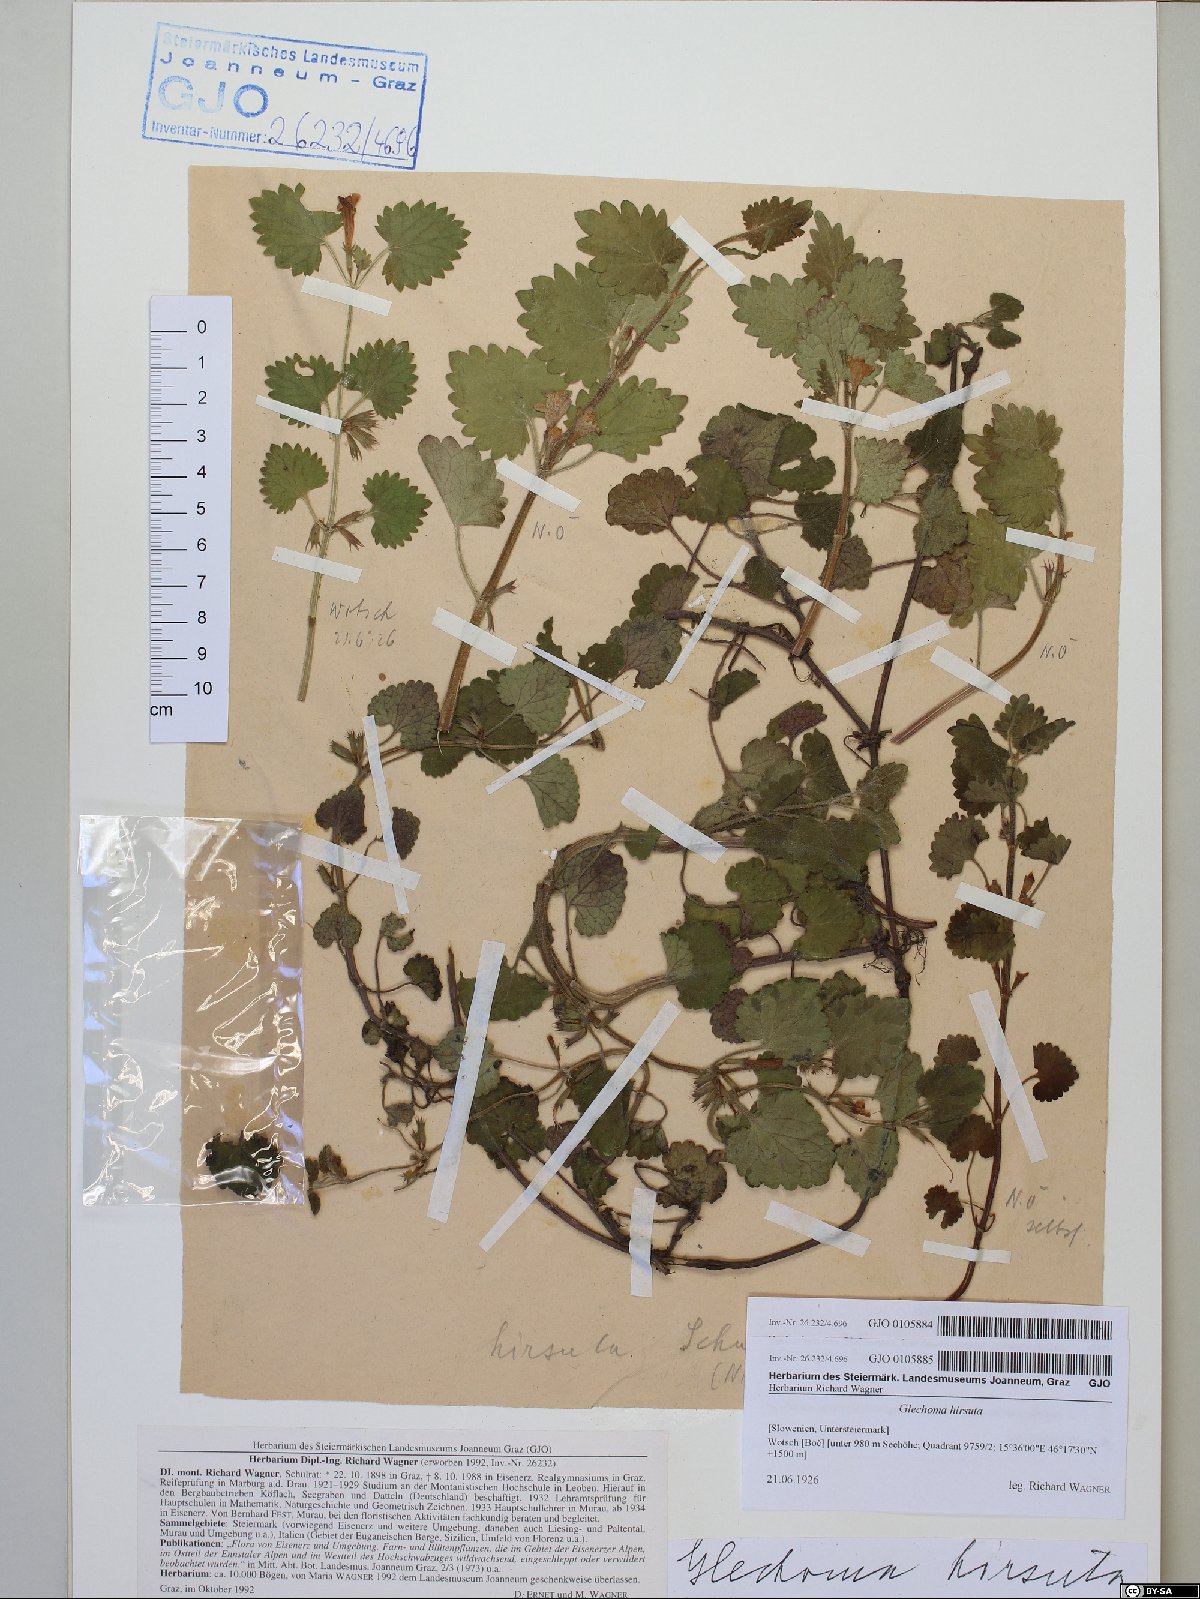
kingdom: Plantae
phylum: Tracheophyta
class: Magnoliopsida
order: Lamiales
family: Lamiaceae
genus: Glechoma
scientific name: Glechoma hirsuta
